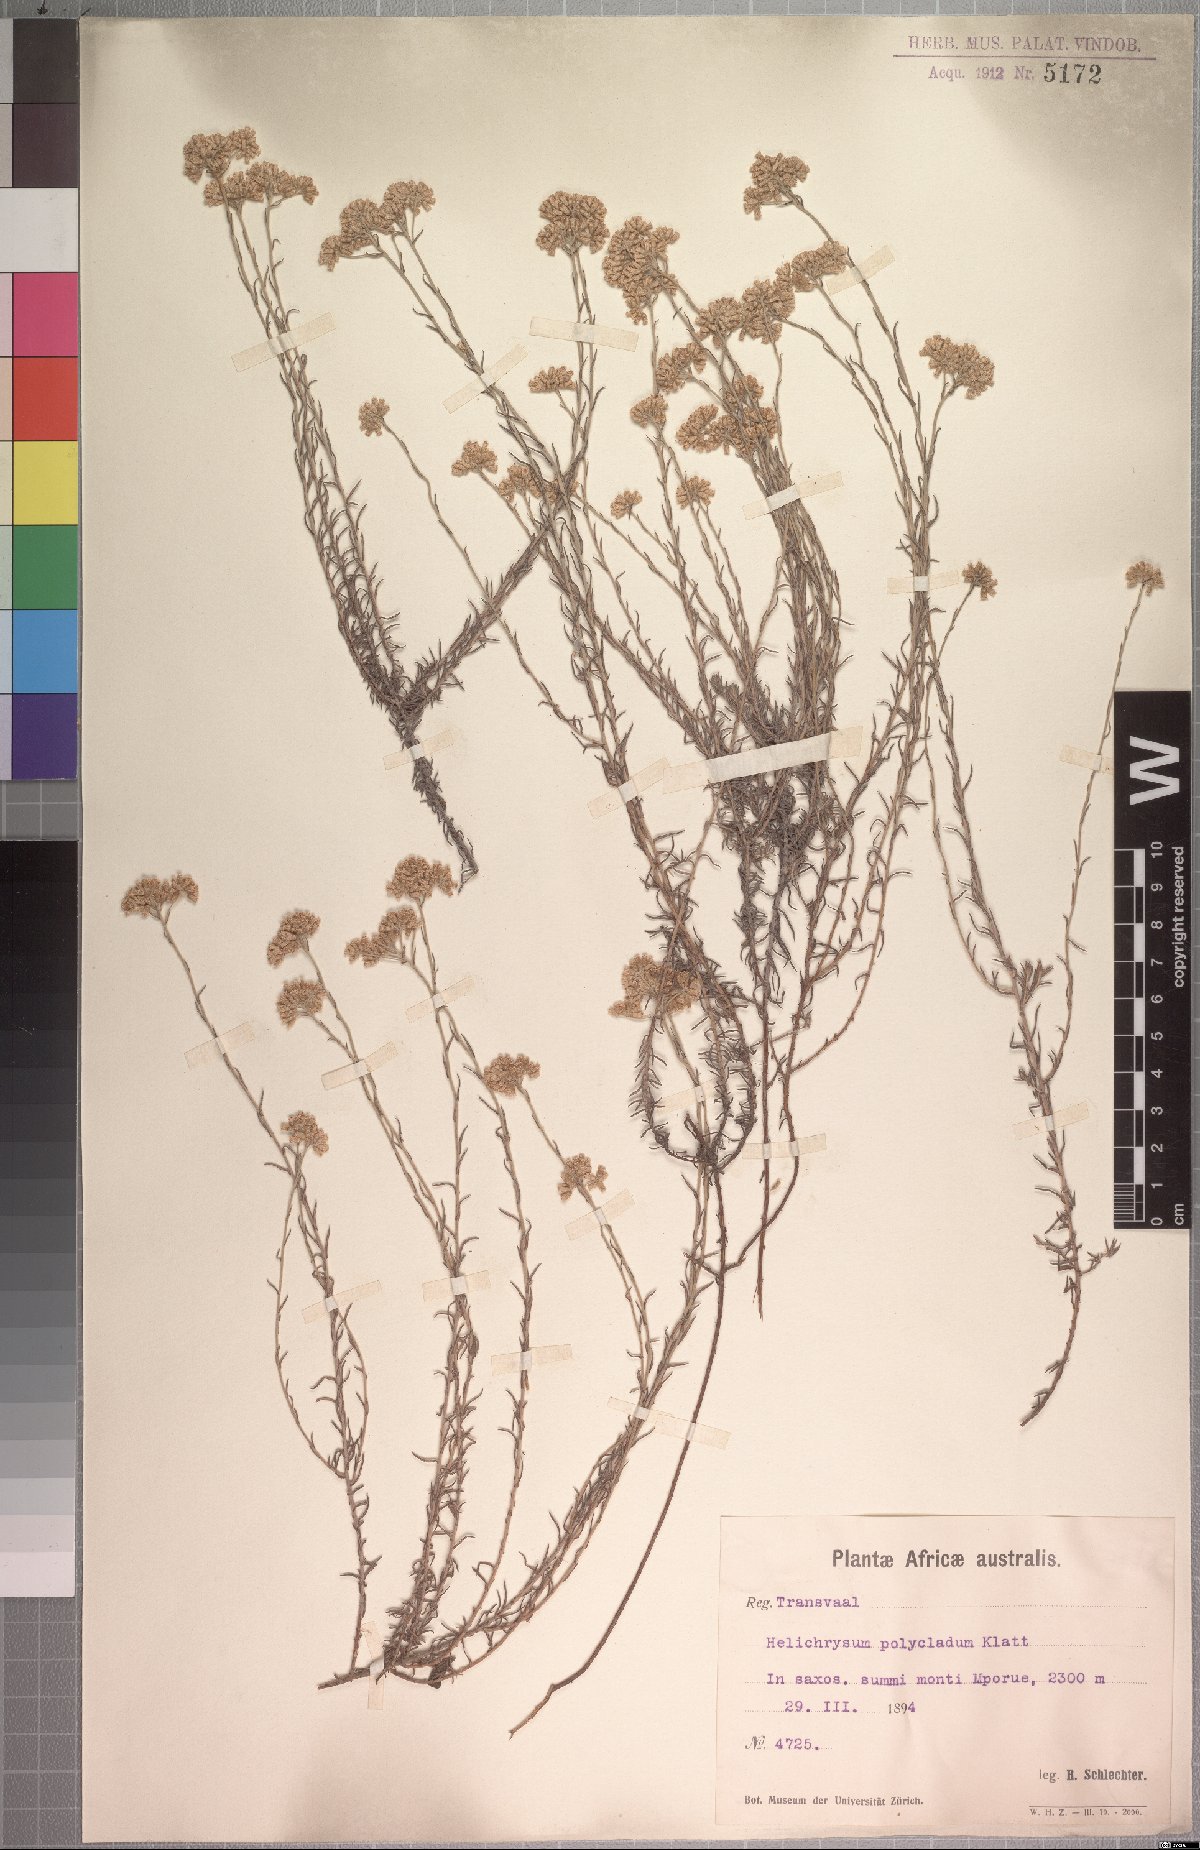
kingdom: Plantae
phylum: Tracheophyta
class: Magnoliopsida
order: Asterales
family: Asteraceae
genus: Helichrysum
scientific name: Helichrysum polycladum
